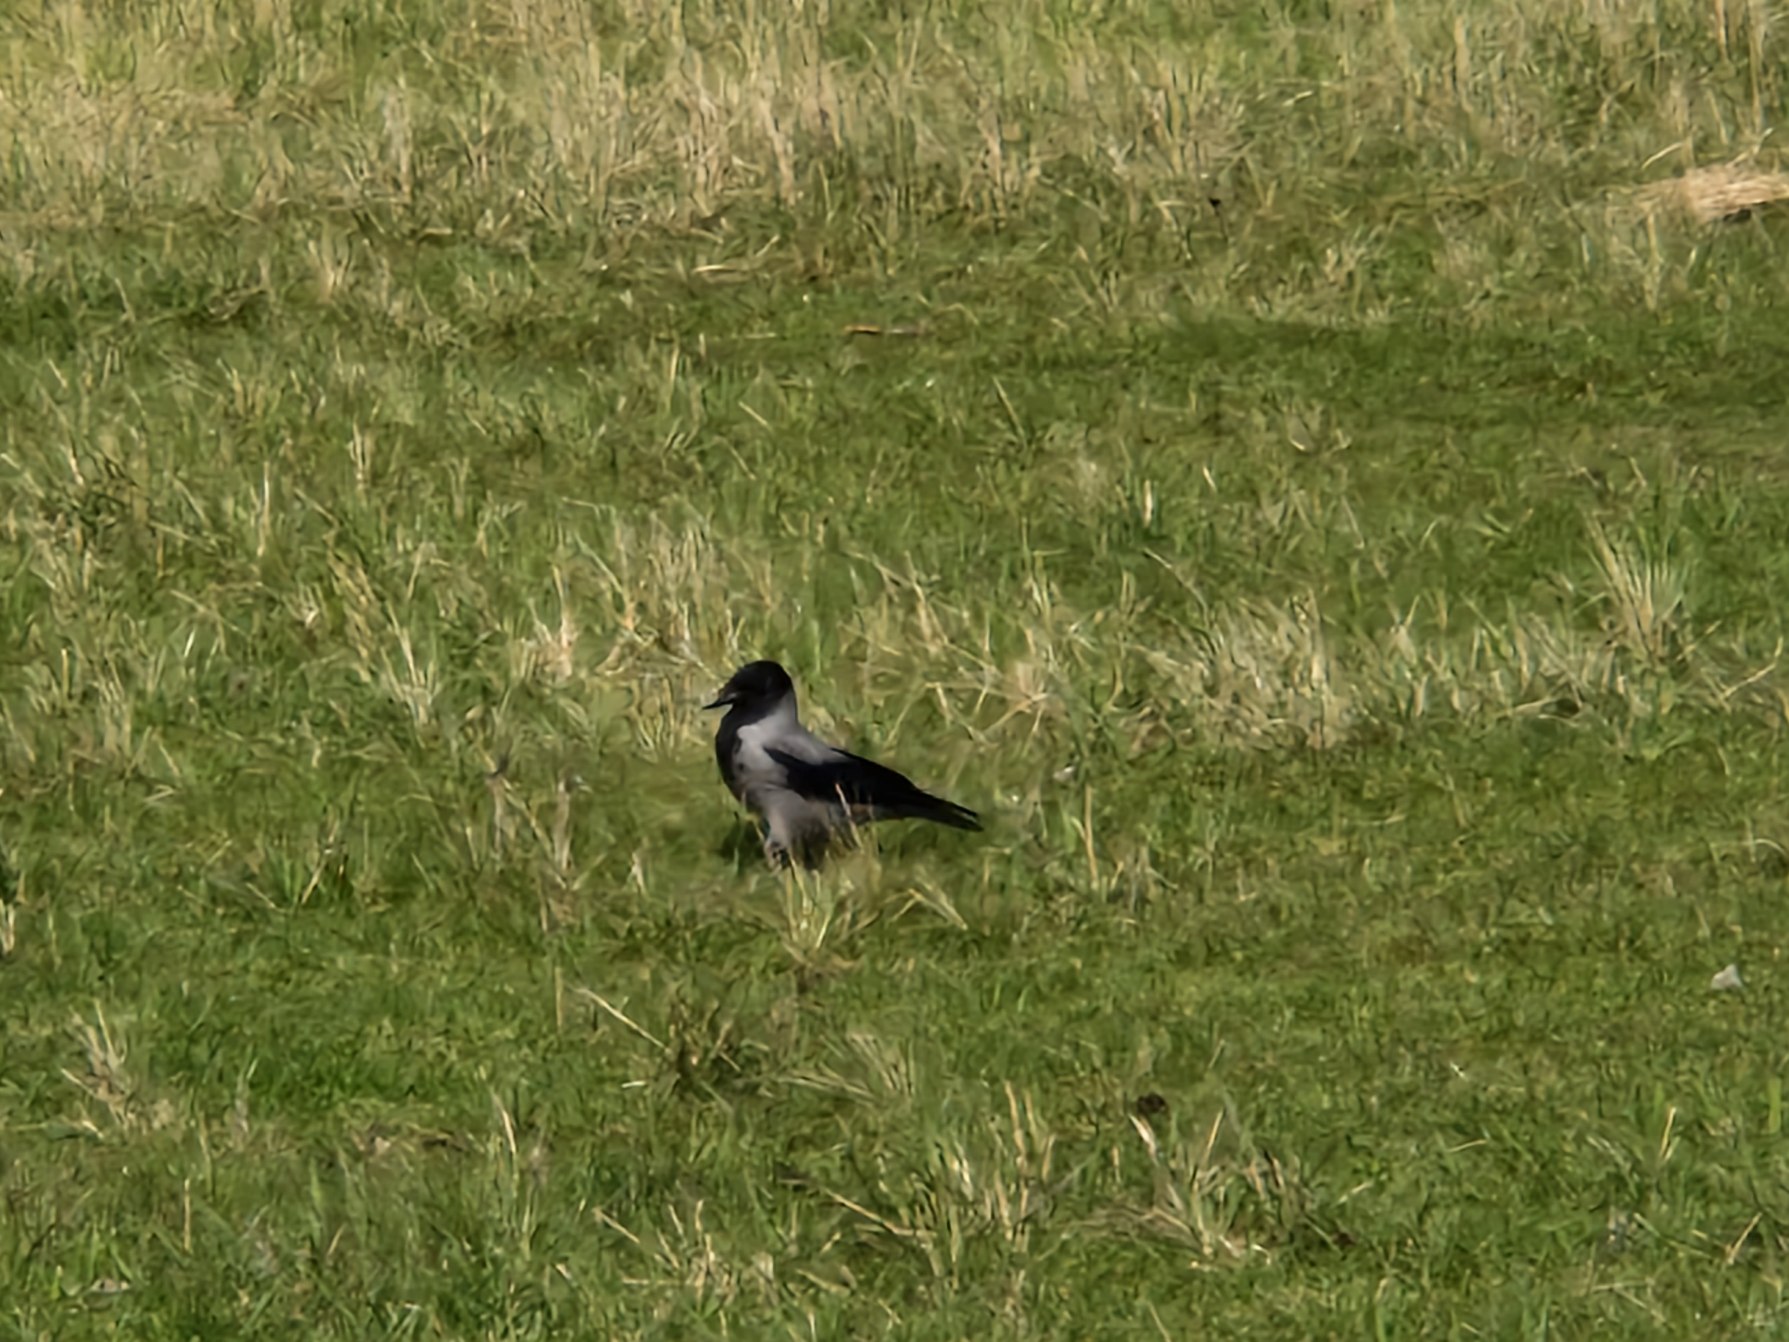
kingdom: Animalia
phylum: Chordata
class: Aves
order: Passeriformes
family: Corvidae
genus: Corvus
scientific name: Corvus cornix
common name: Gråkrage
